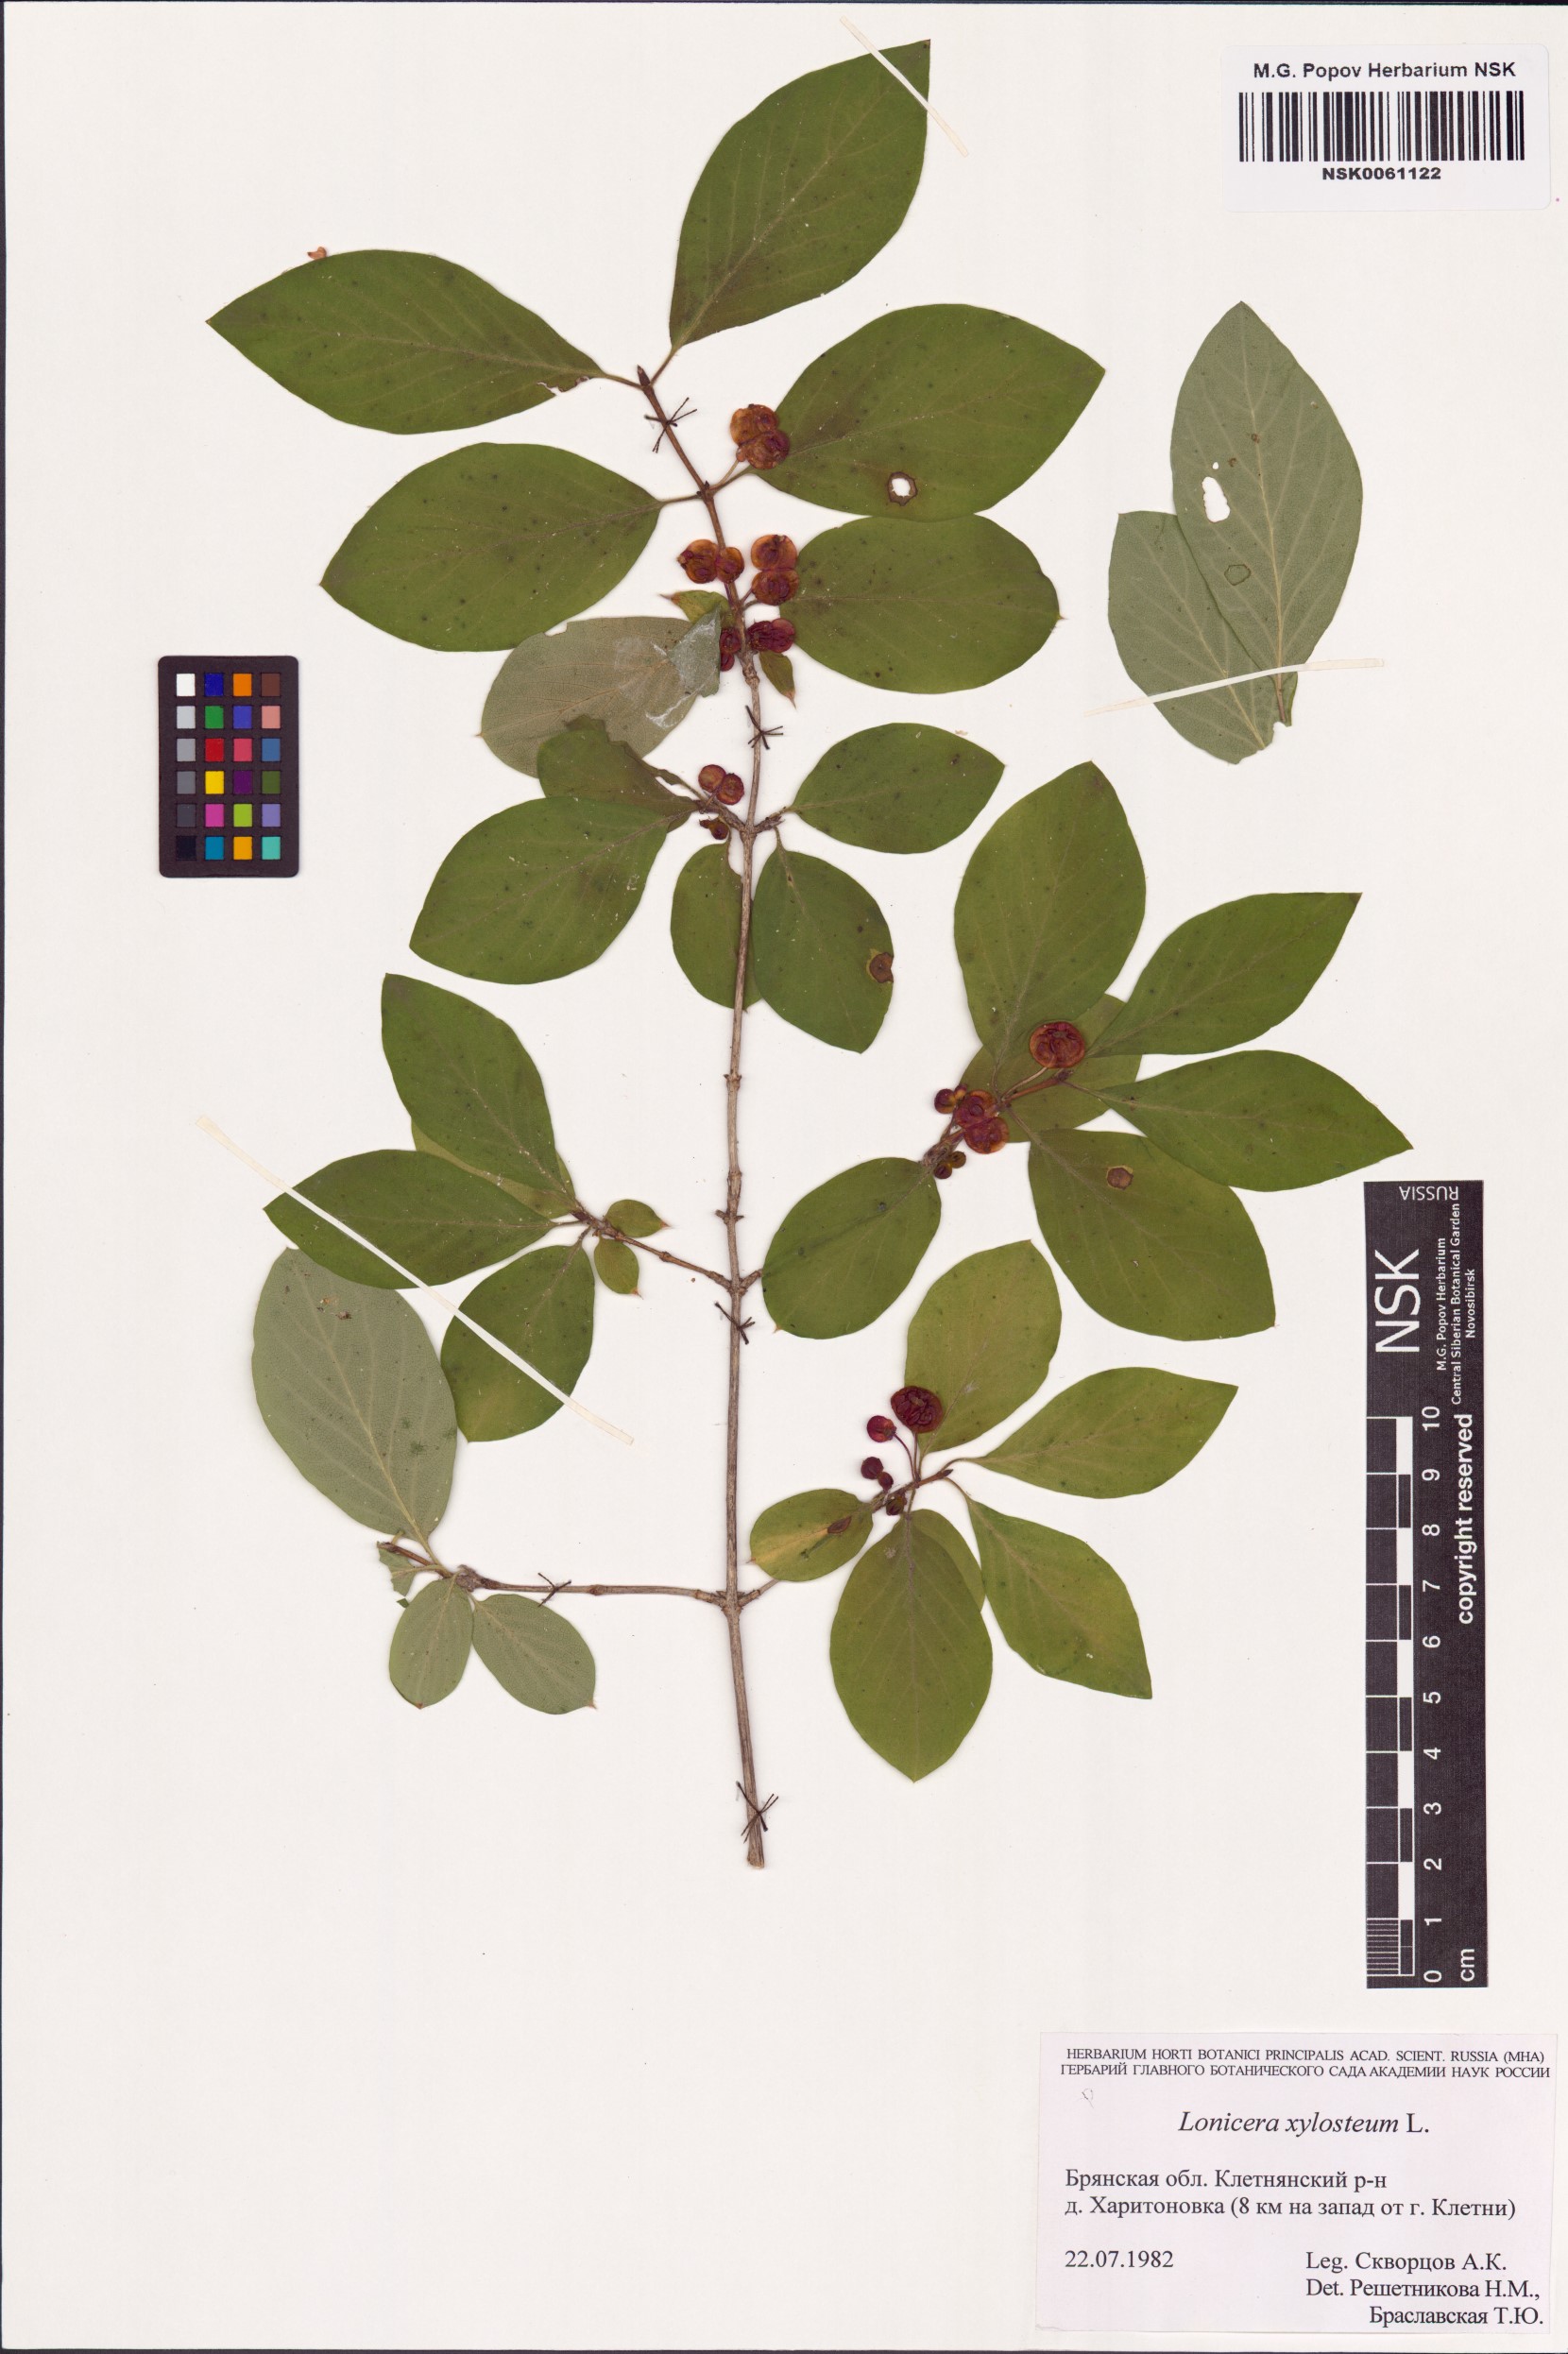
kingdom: Plantae
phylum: Tracheophyta
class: Magnoliopsida
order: Dipsacales
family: Caprifoliaceae
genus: Lonicera
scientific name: Lonicera xylosteum
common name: Fly honeysuckle
